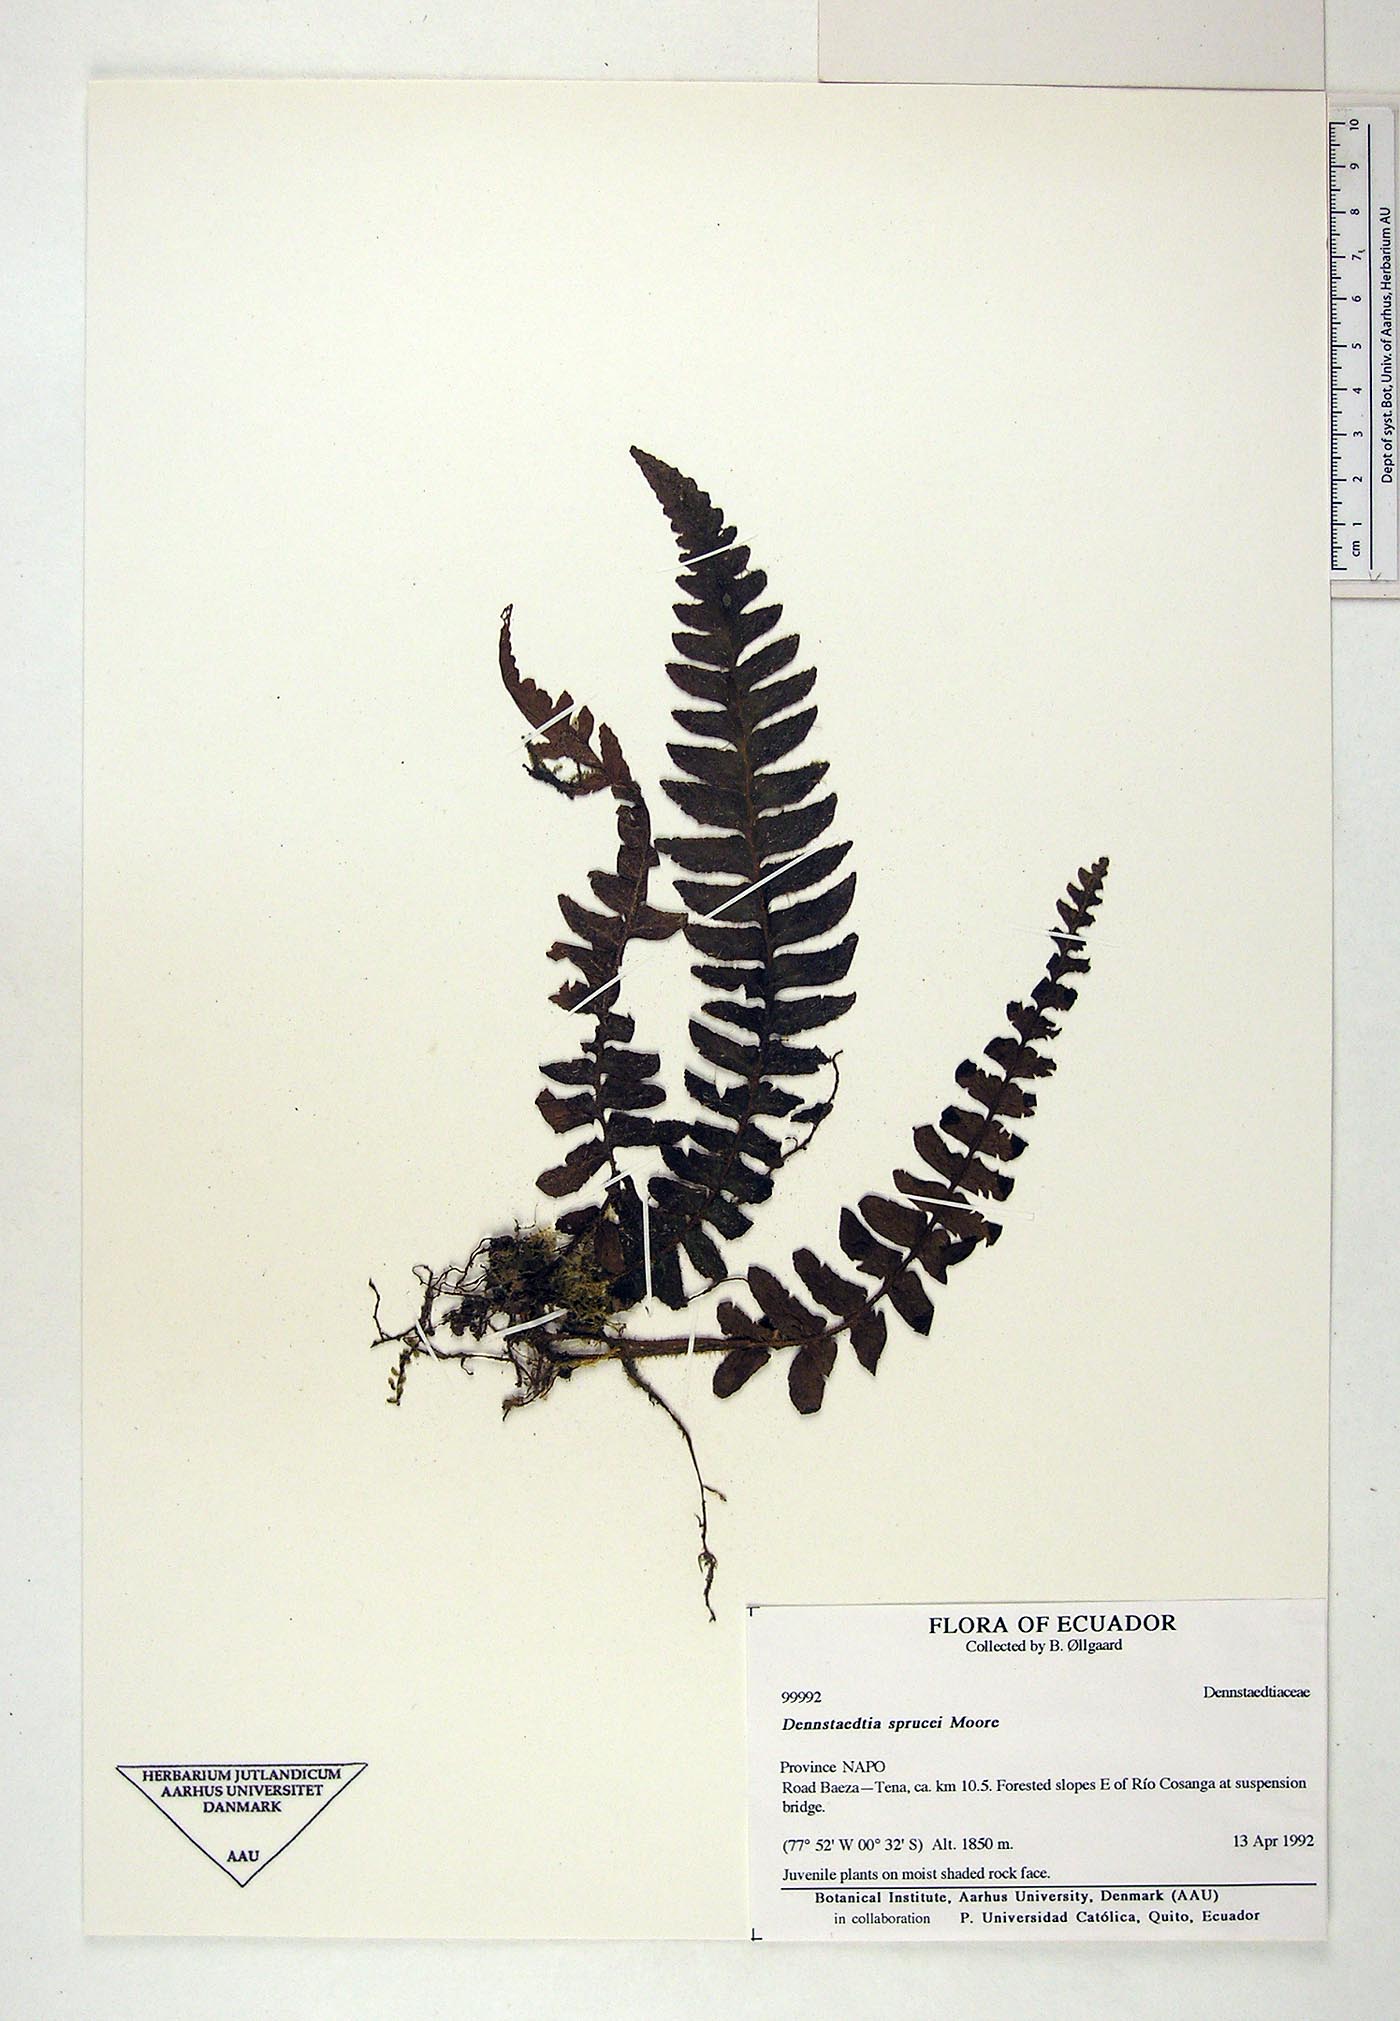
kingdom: Plantae
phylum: Tracheophyta
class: Polypodiopsida
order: Polypodiales
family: Dennstaedtiaceae
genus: Dennstaedtia
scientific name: Dennstaedtia sprucei
